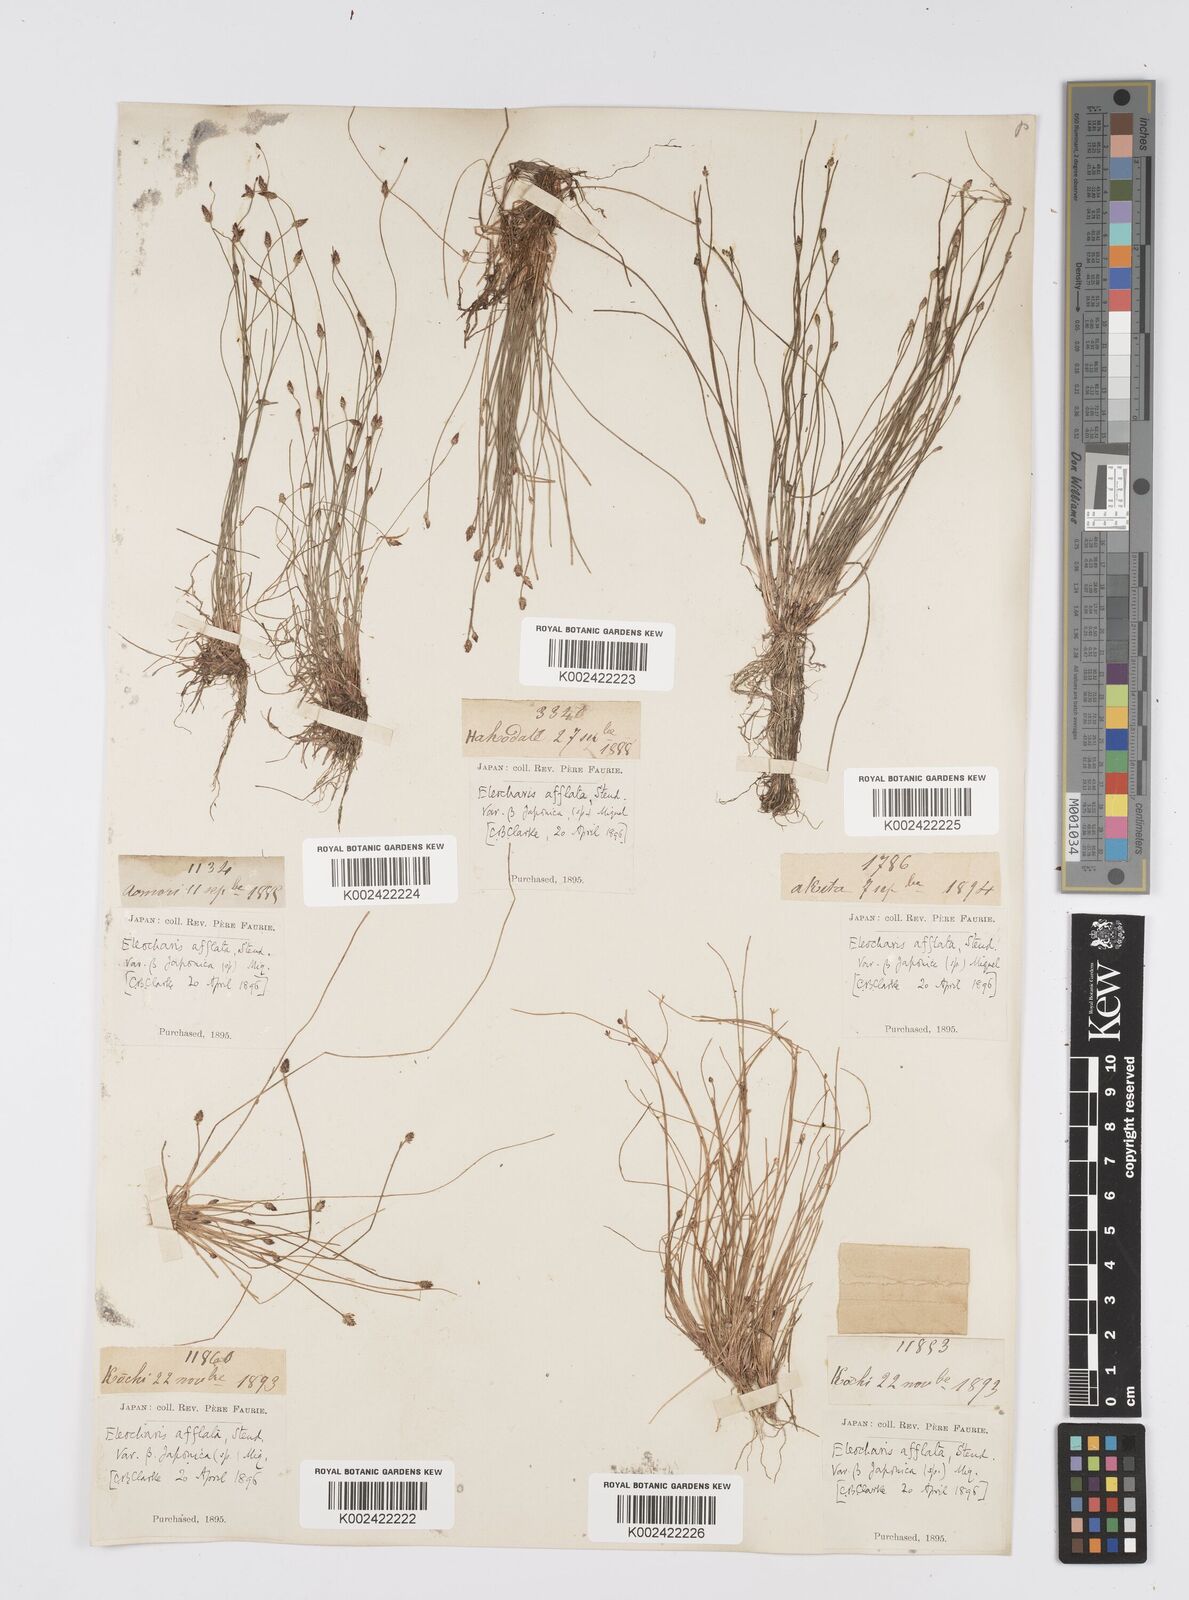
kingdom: Plantae
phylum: Tracheophyta
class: Liliopsida
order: Poales
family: Cyperaceae
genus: Eleocharis
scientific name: Eleocharis pellucida
